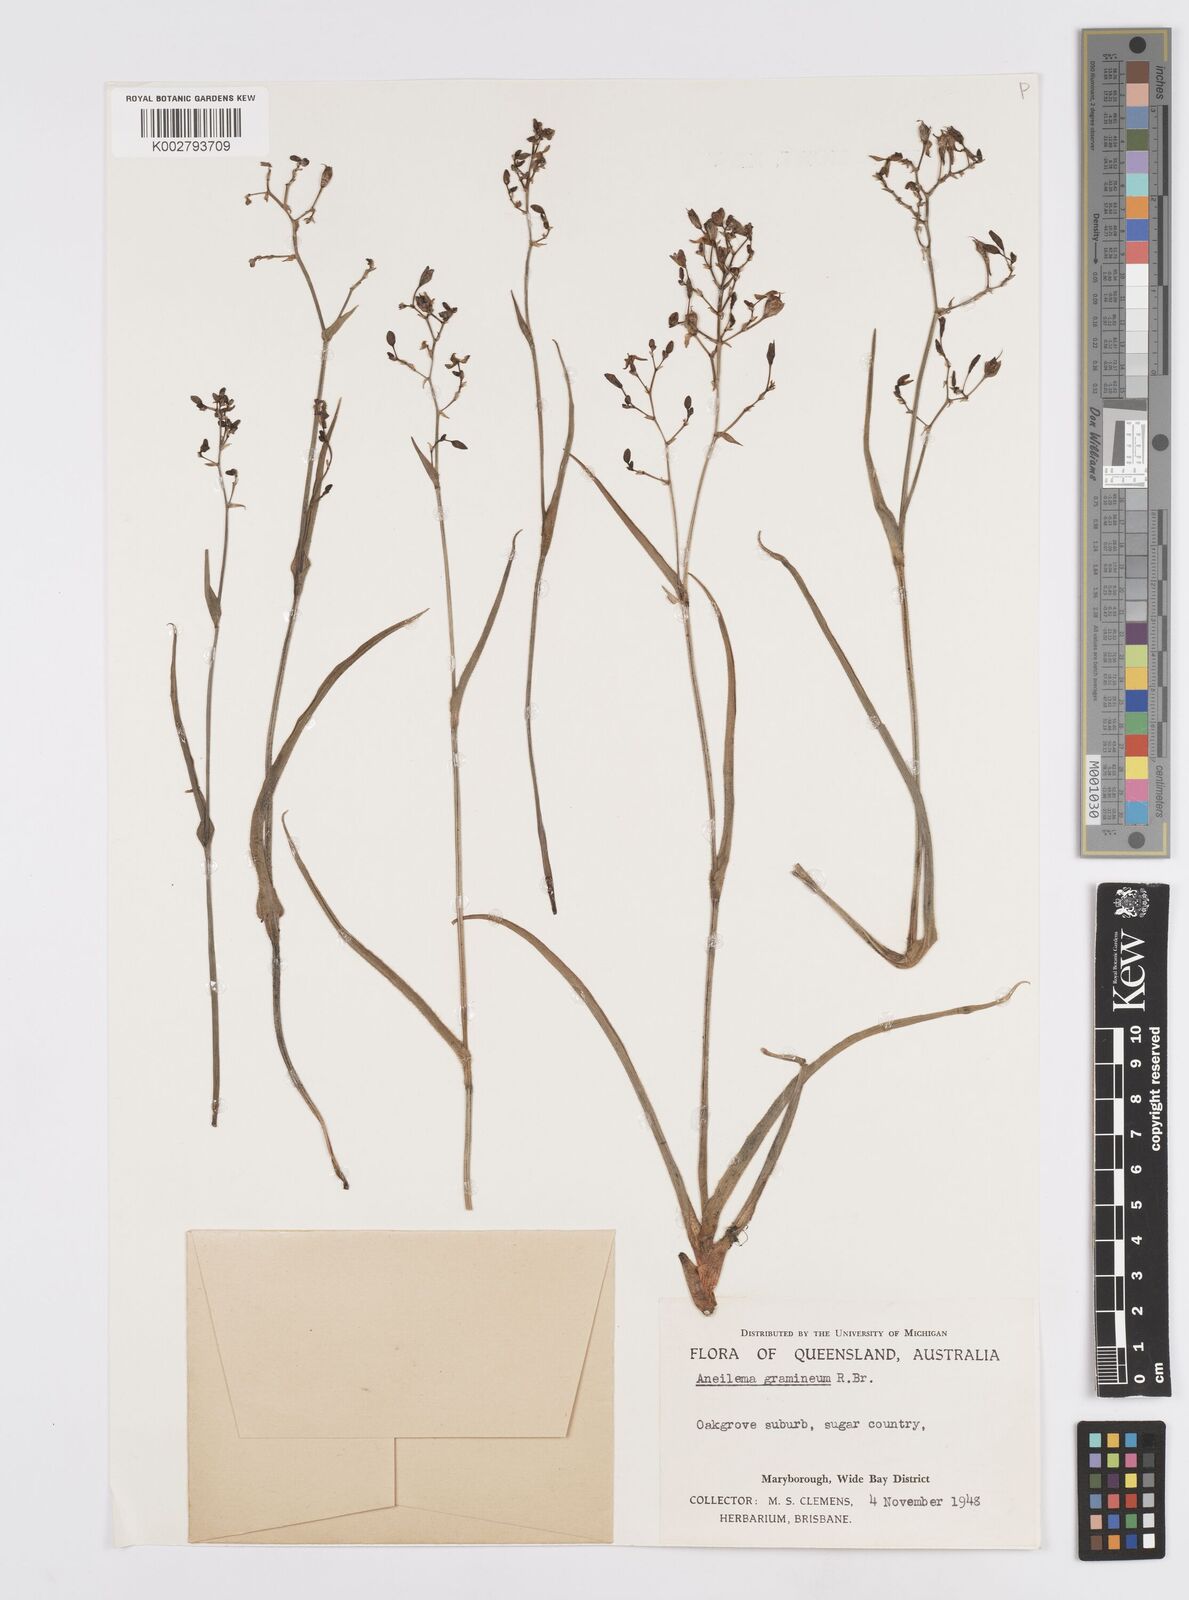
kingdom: Plantae
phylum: Tracheophyta
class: Liliopsida
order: Commelinales
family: Commelinaceae
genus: Murdannia
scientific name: Murdannia graminea
